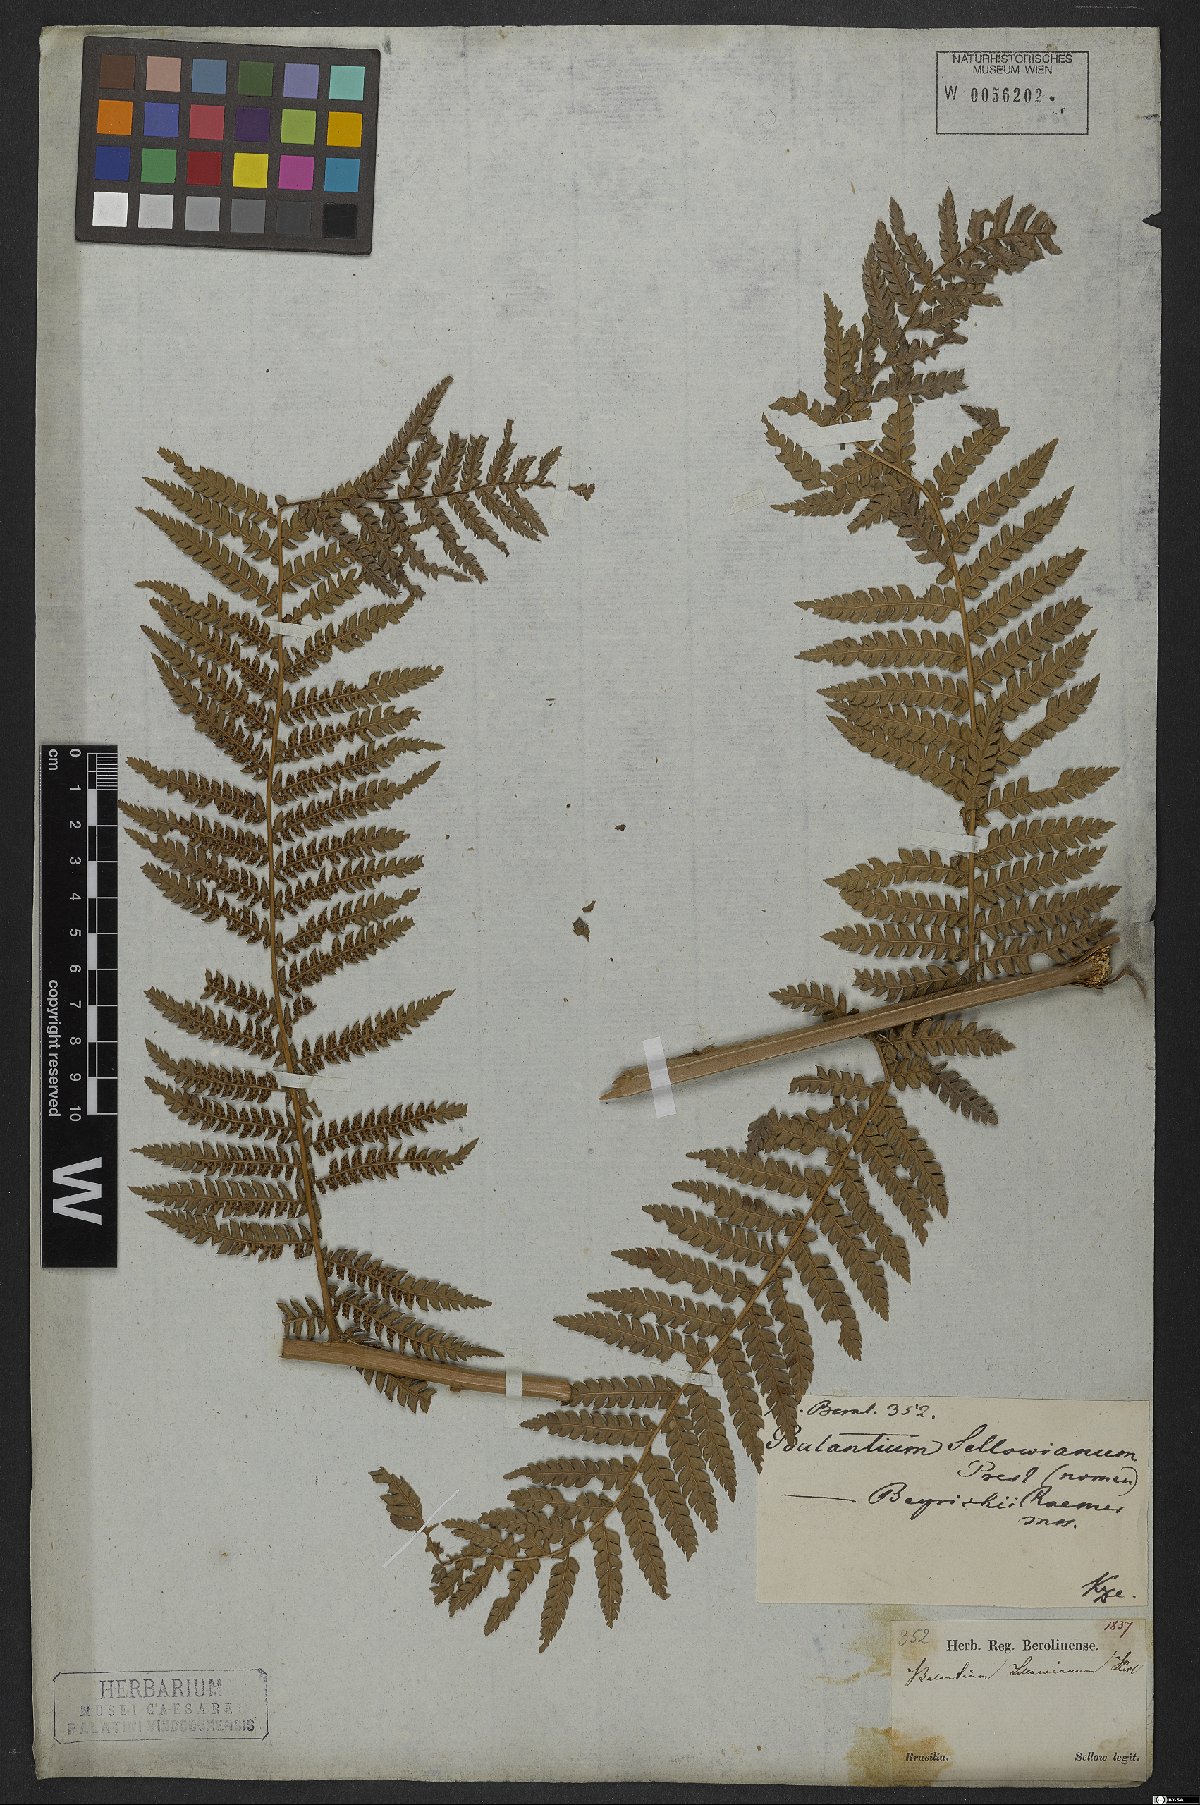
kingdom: Plantae
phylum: Tracheophyta
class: Polypodiopsida
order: Cyatheales
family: Dicksoniaceae
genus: Dicksonia
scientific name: Dicksonia sellowiana
